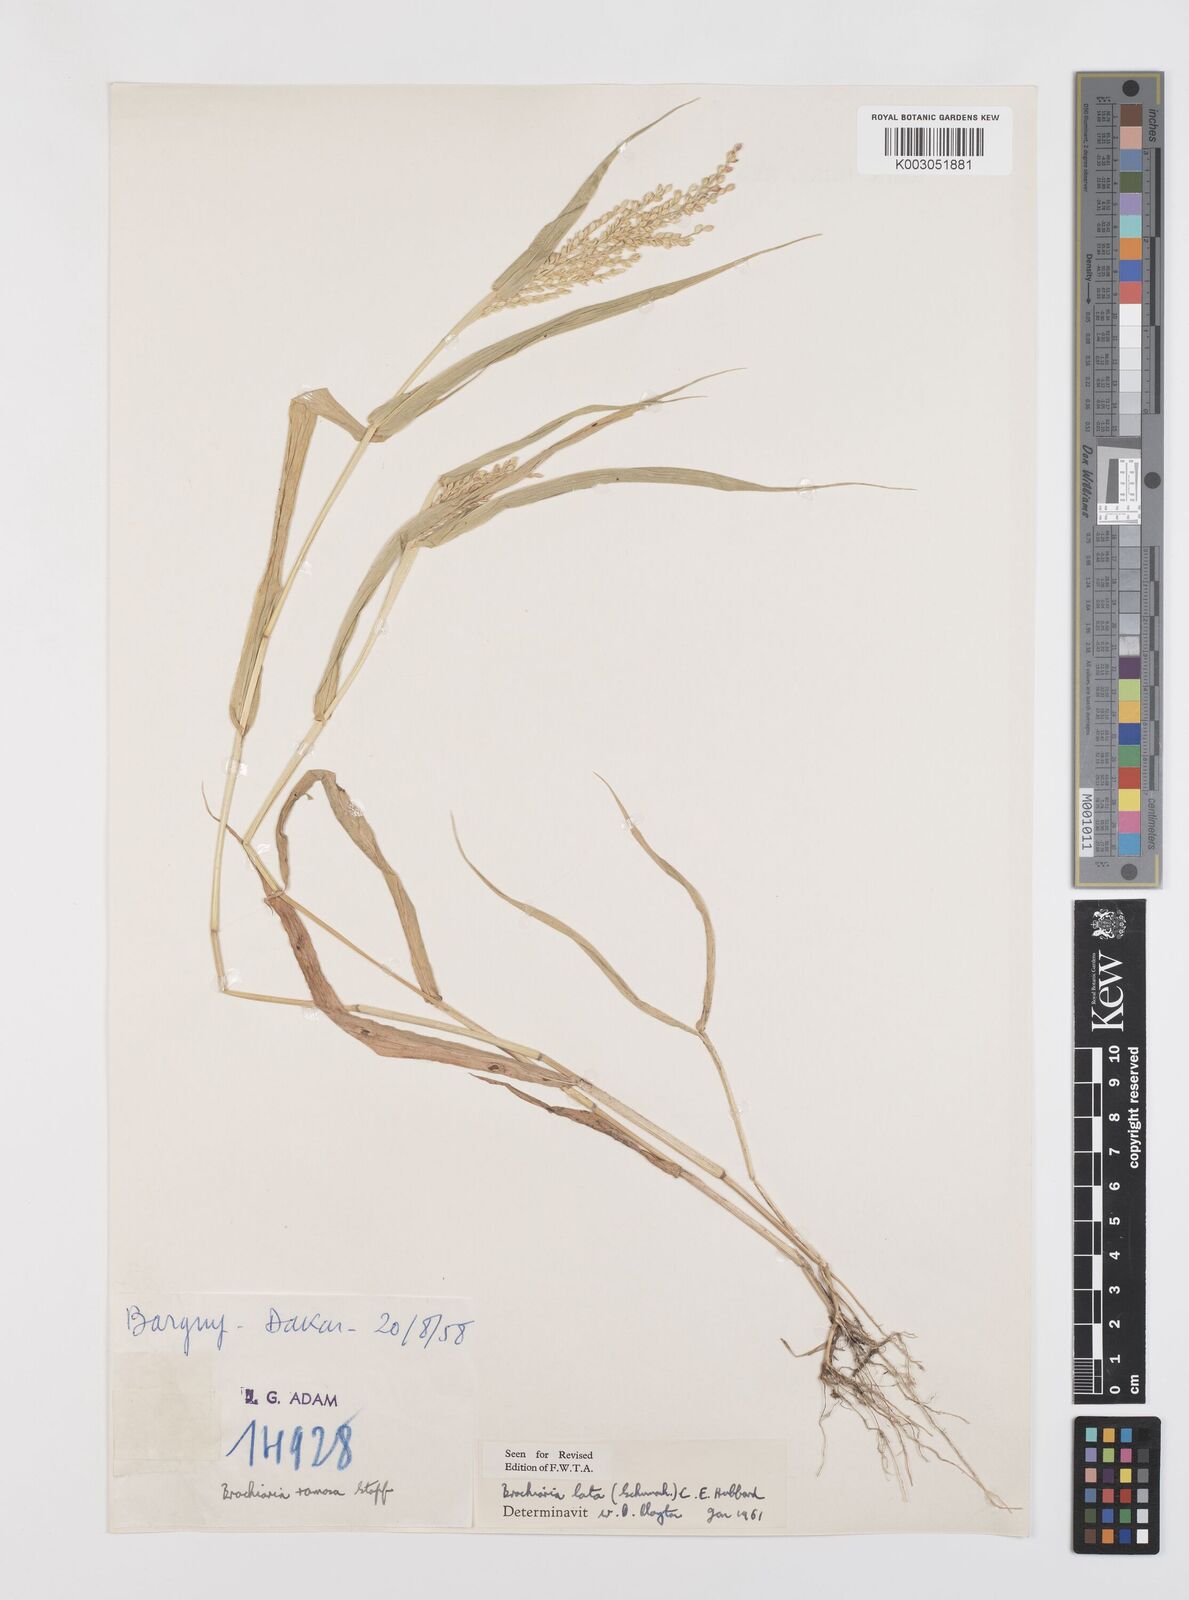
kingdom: Plantae
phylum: Tracheophyta
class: Liliopsida
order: Poales
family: Poaceae
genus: Urochloa
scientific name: Urochloa lata
